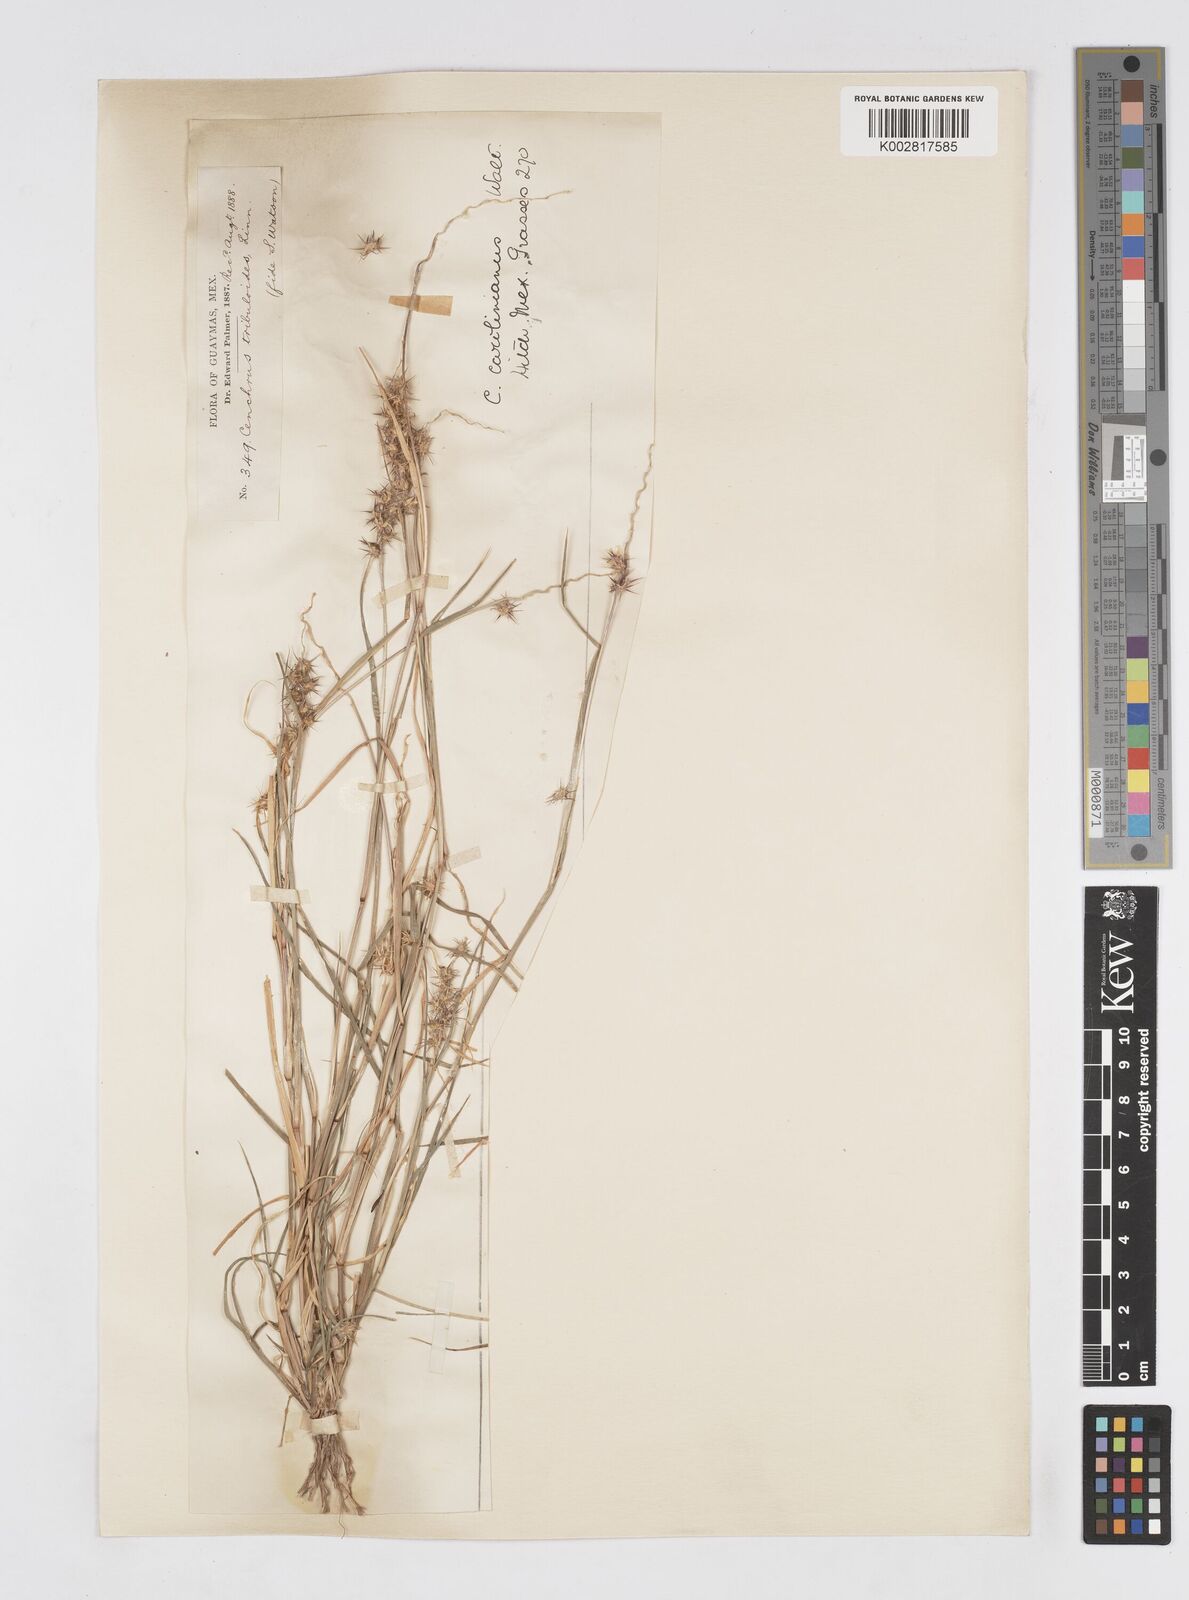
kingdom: Plantae
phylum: Tracheophyta
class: Liliopsida
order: Poales
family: Poaceae
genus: Cenchrus
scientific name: Cenchrus spinifex
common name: Coast sandbur
